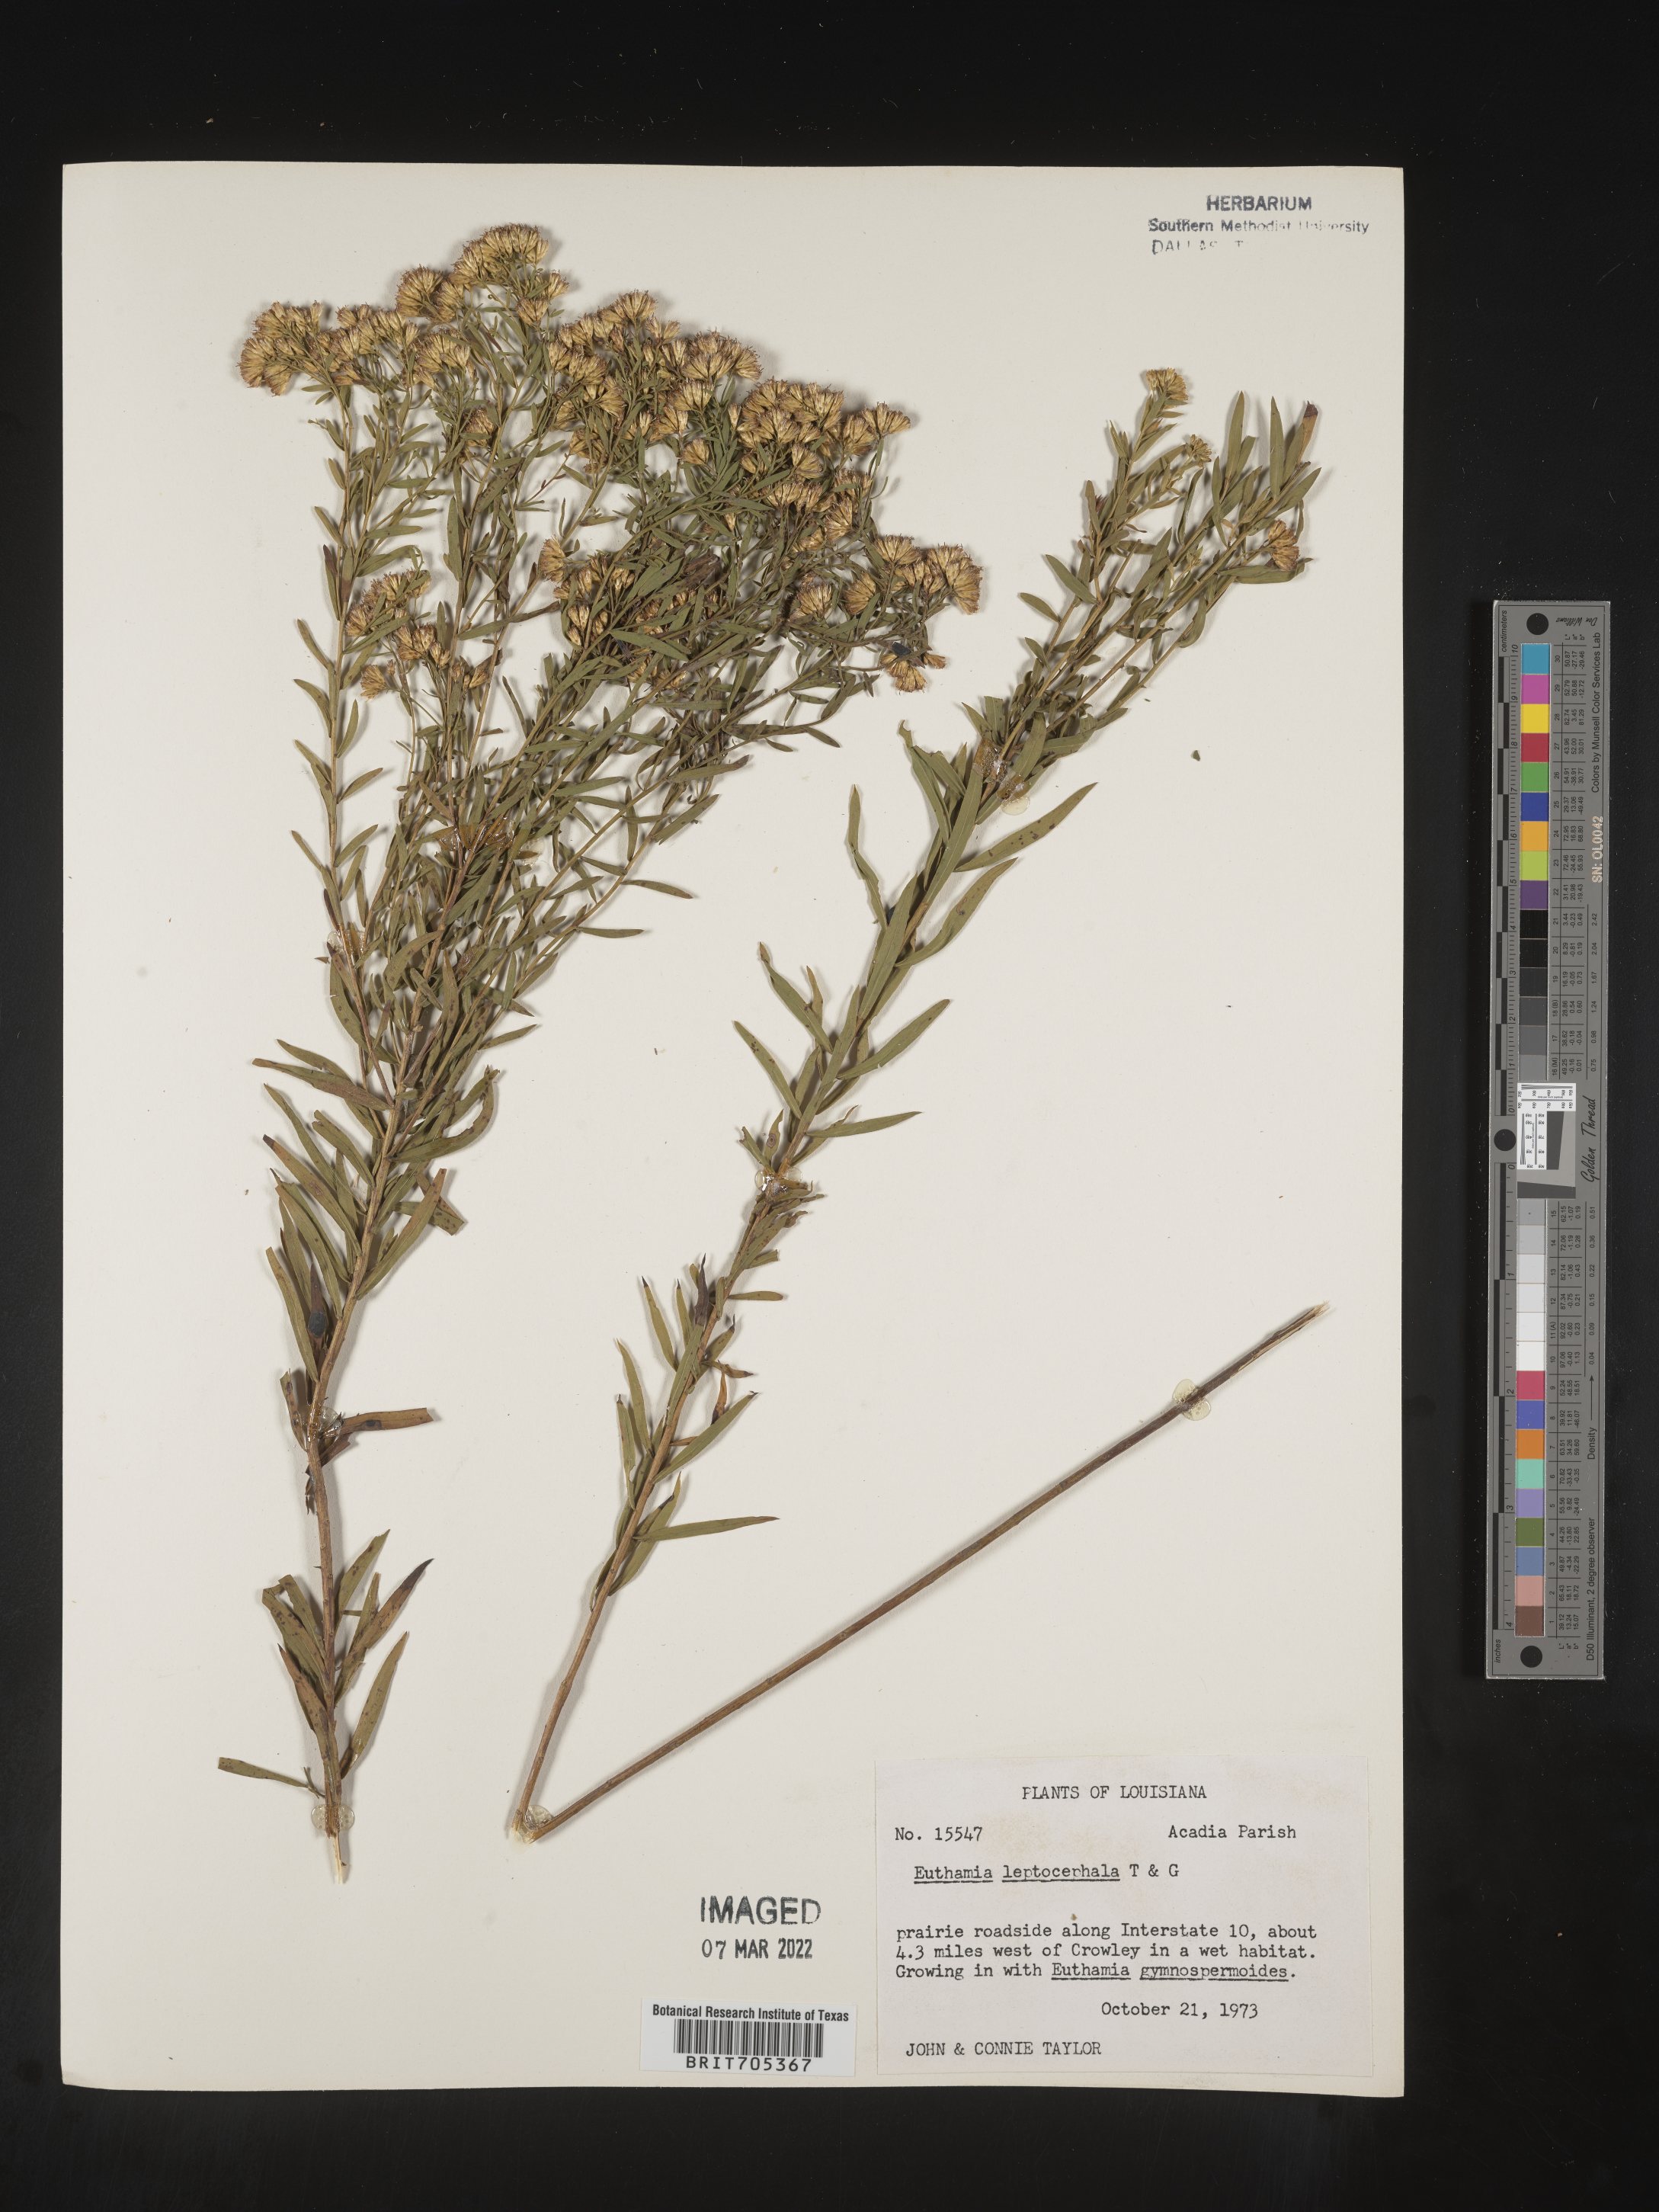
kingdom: Plantae
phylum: Tracheophyta
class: Magnoliopsida
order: Asterales
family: Asteraceae
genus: Euthamia
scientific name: Euthamia leptocephala
